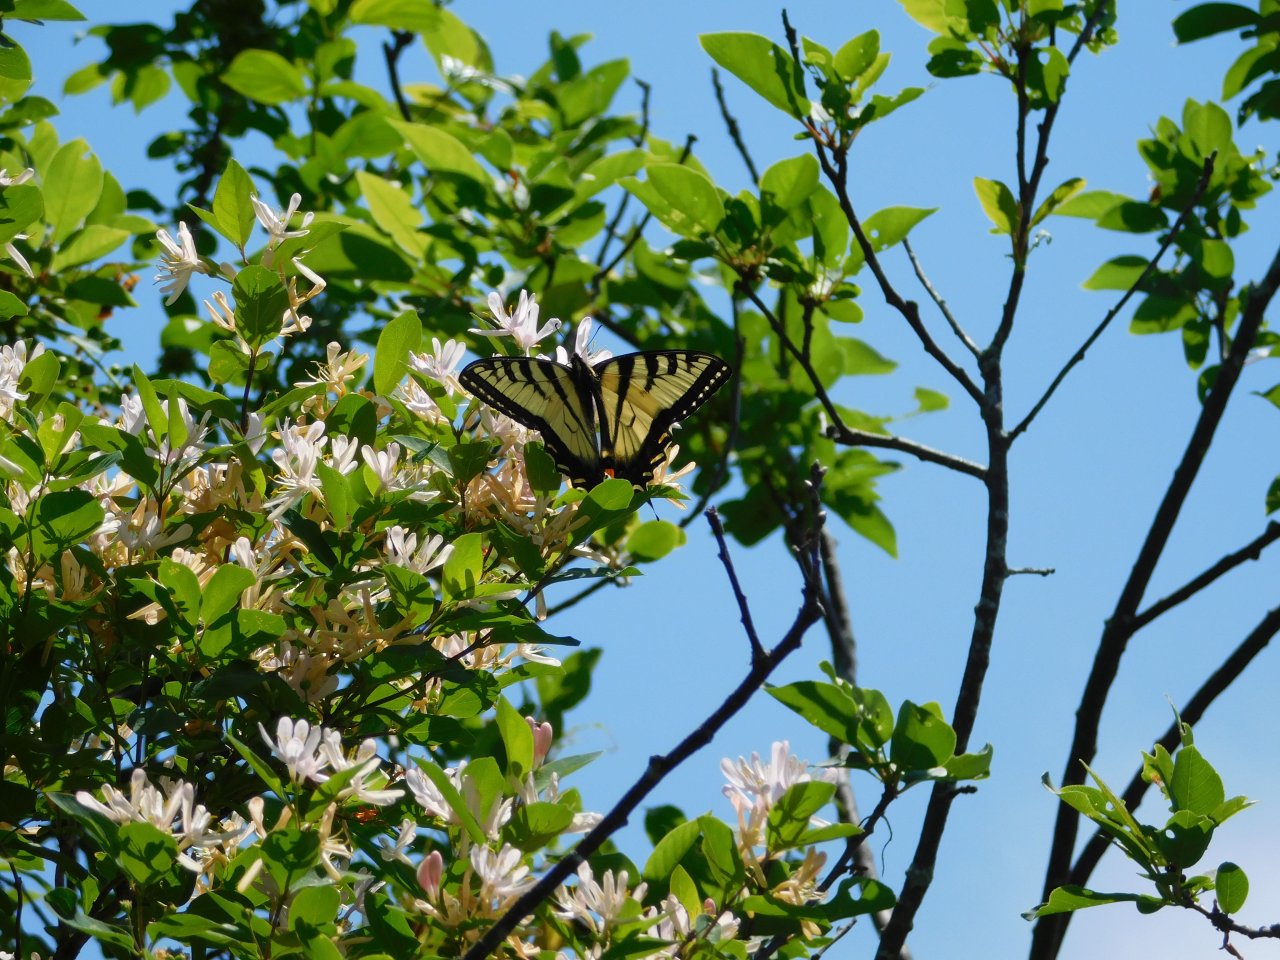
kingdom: Animalia
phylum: Arthropoda
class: Insecta
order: Lepidoptera
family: Papilionidae
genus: Pterourus
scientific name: Pterourus canadensis
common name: Canadian Tiger Swallowtail
